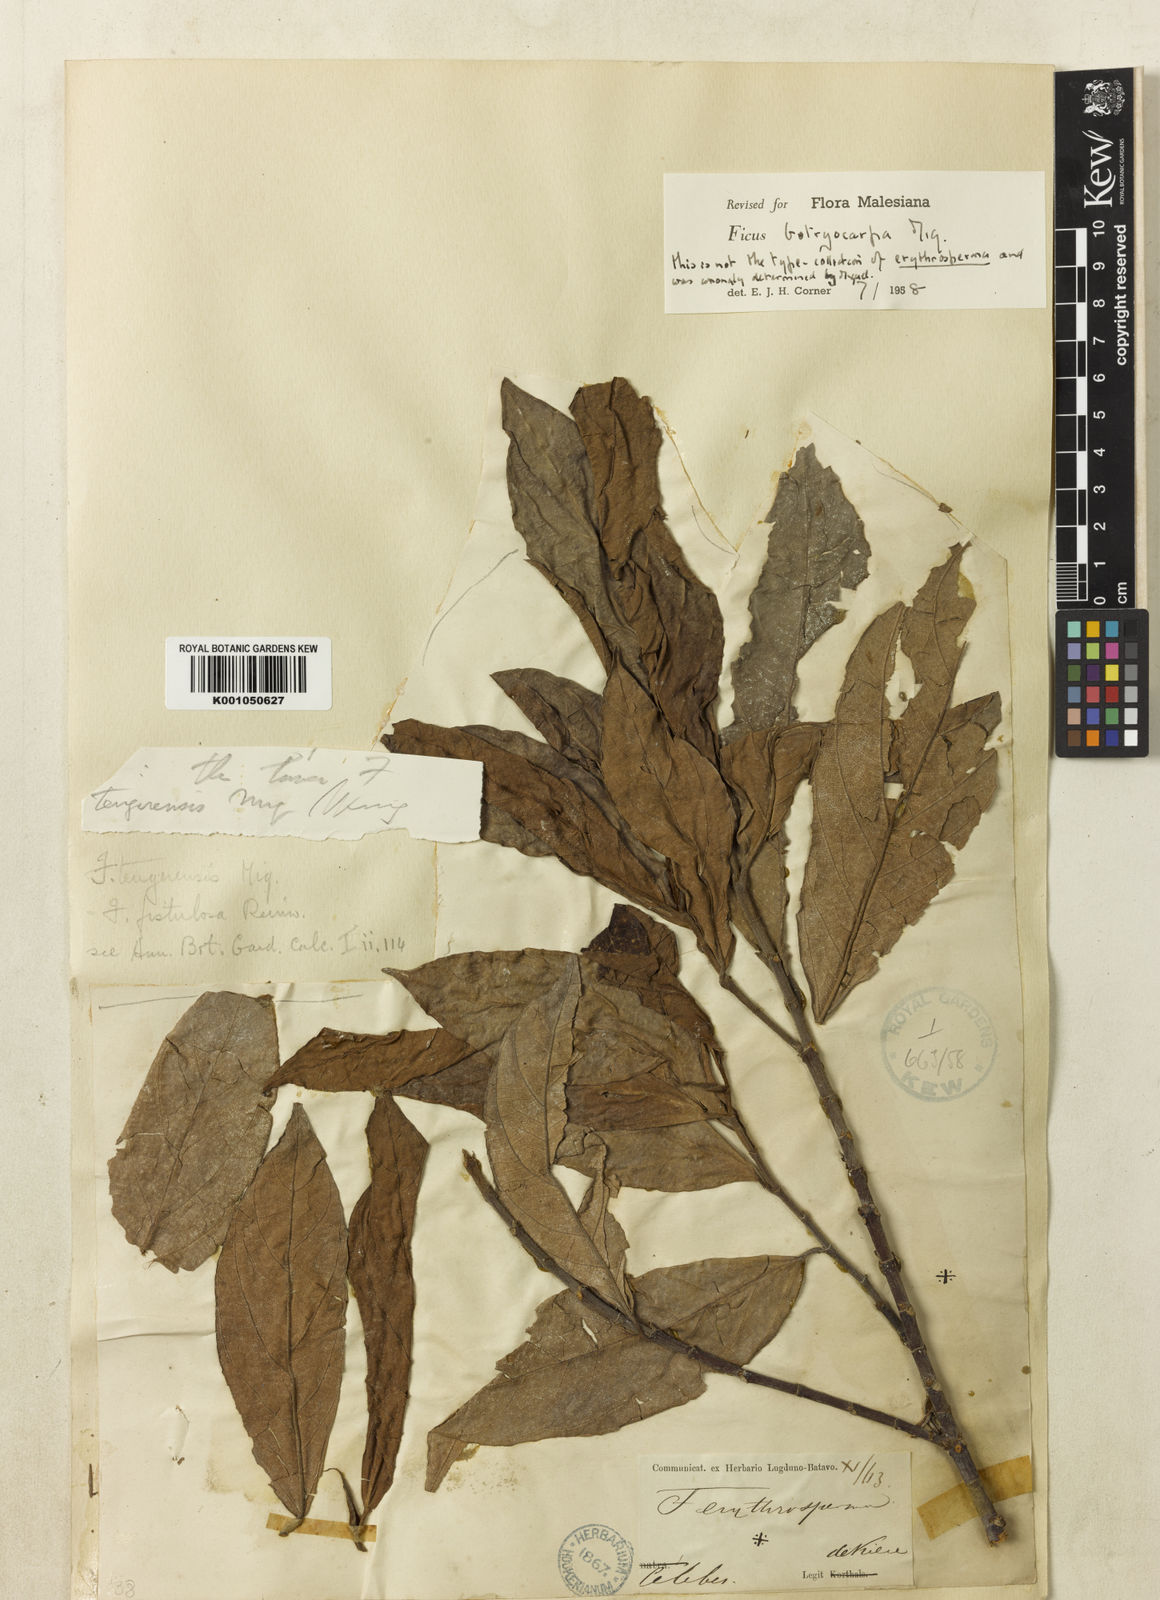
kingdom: Plantae
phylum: Tracheophyta
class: Magnoliopsida
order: Rosales
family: Moraceae
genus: Ficus
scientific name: Ficus botryocarpa
